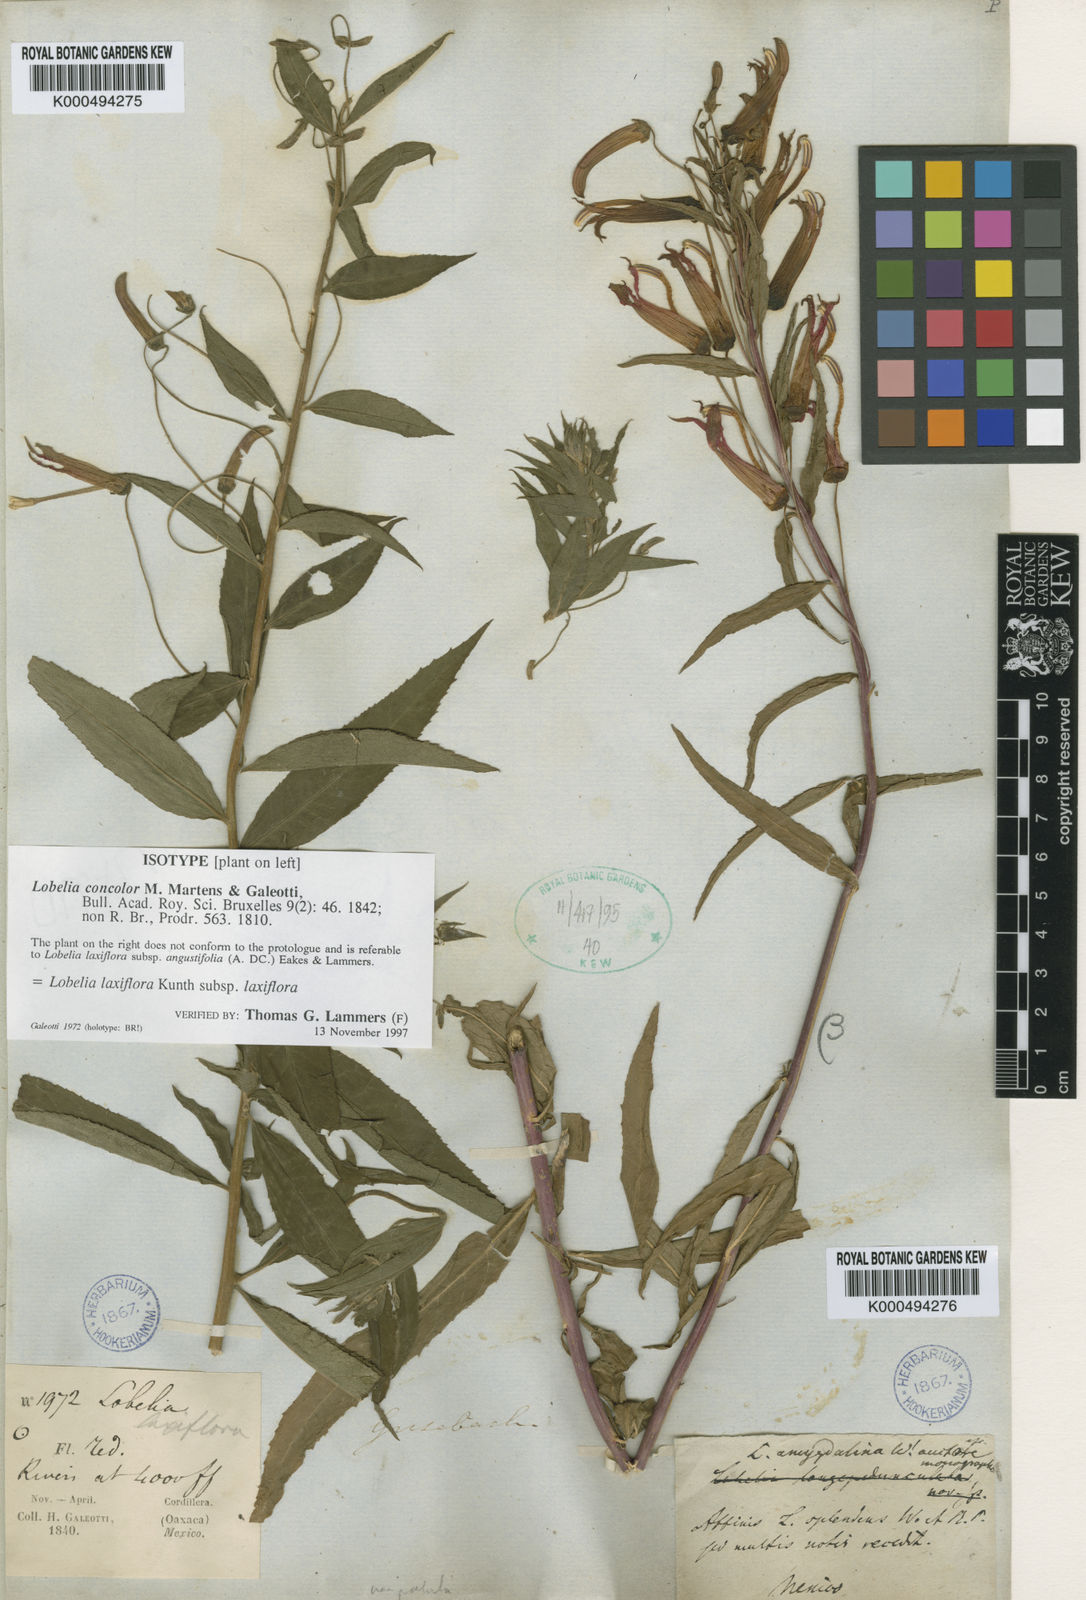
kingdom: Plantae
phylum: Tracheophyta
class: Magnoliopsida
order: Asterales
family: Campanulaceae
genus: Lobelia
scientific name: Lobelia laxiflora
